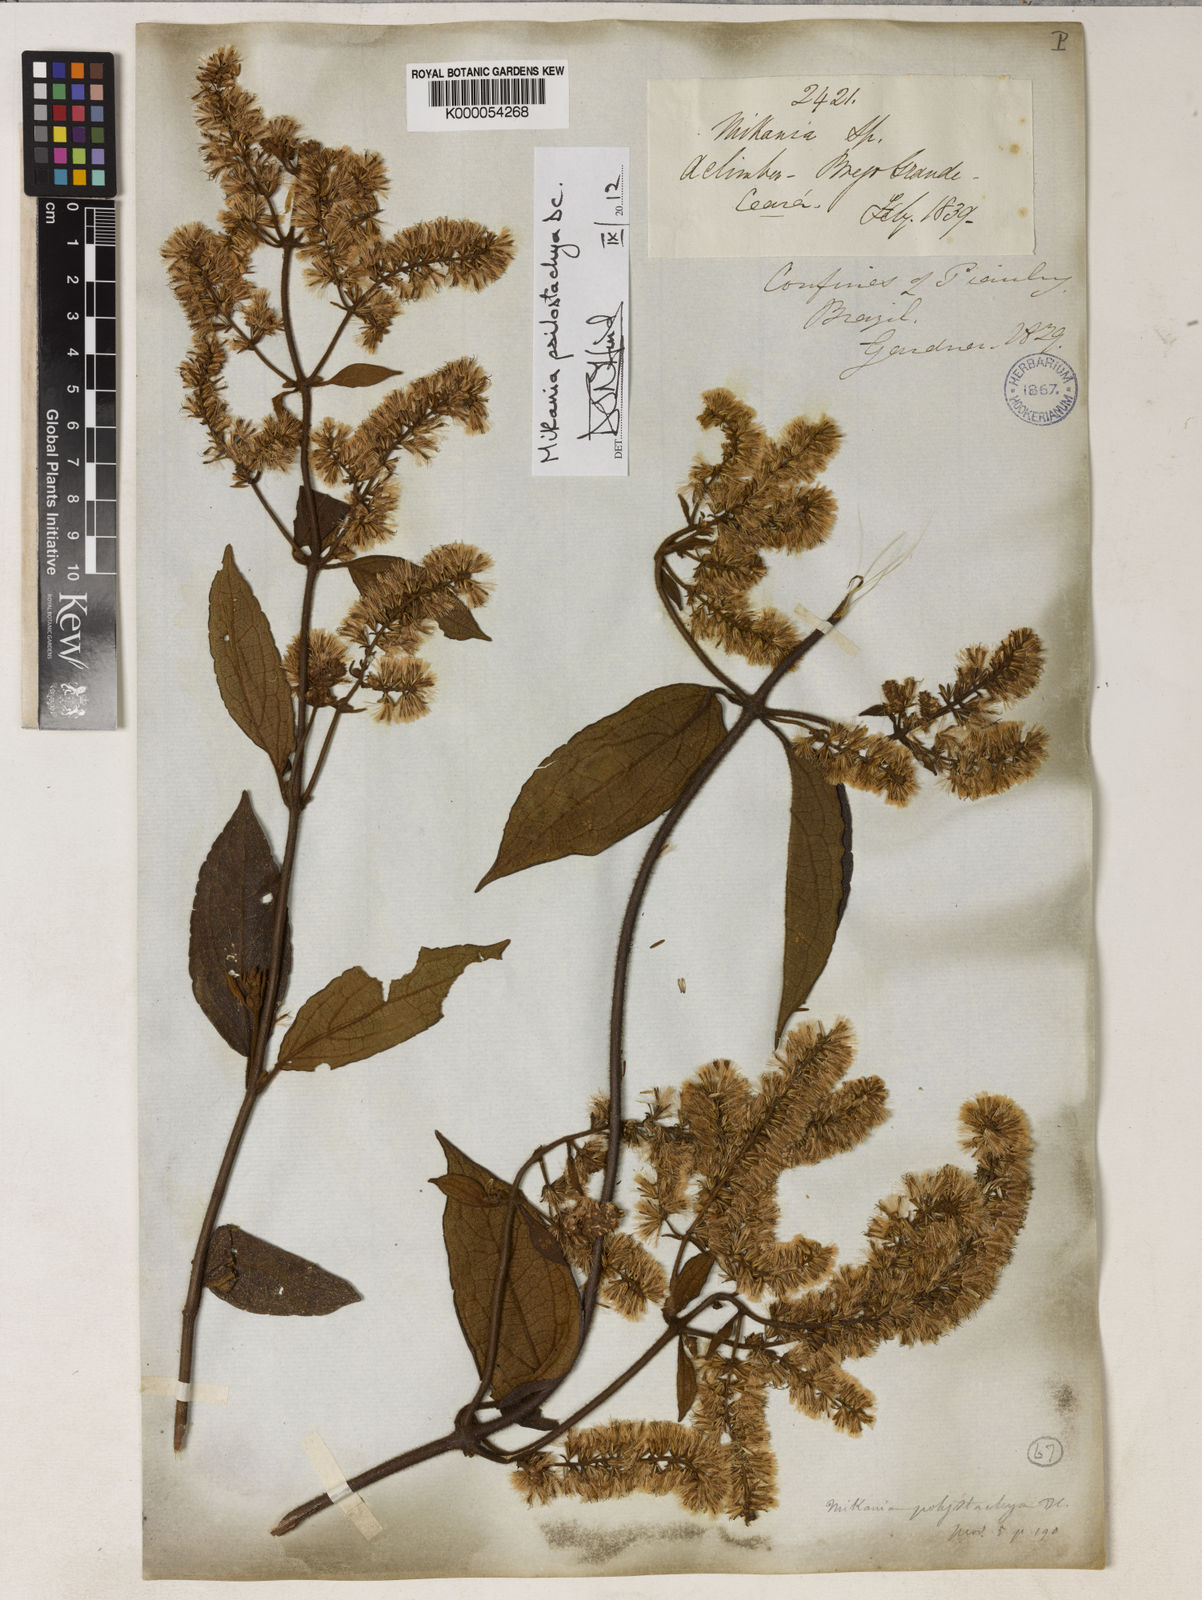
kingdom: Plantae
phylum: Tracheophyta
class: Magnoliopsida
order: Asterales
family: Asteraceae
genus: Mikania
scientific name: Mikania psilostachya
